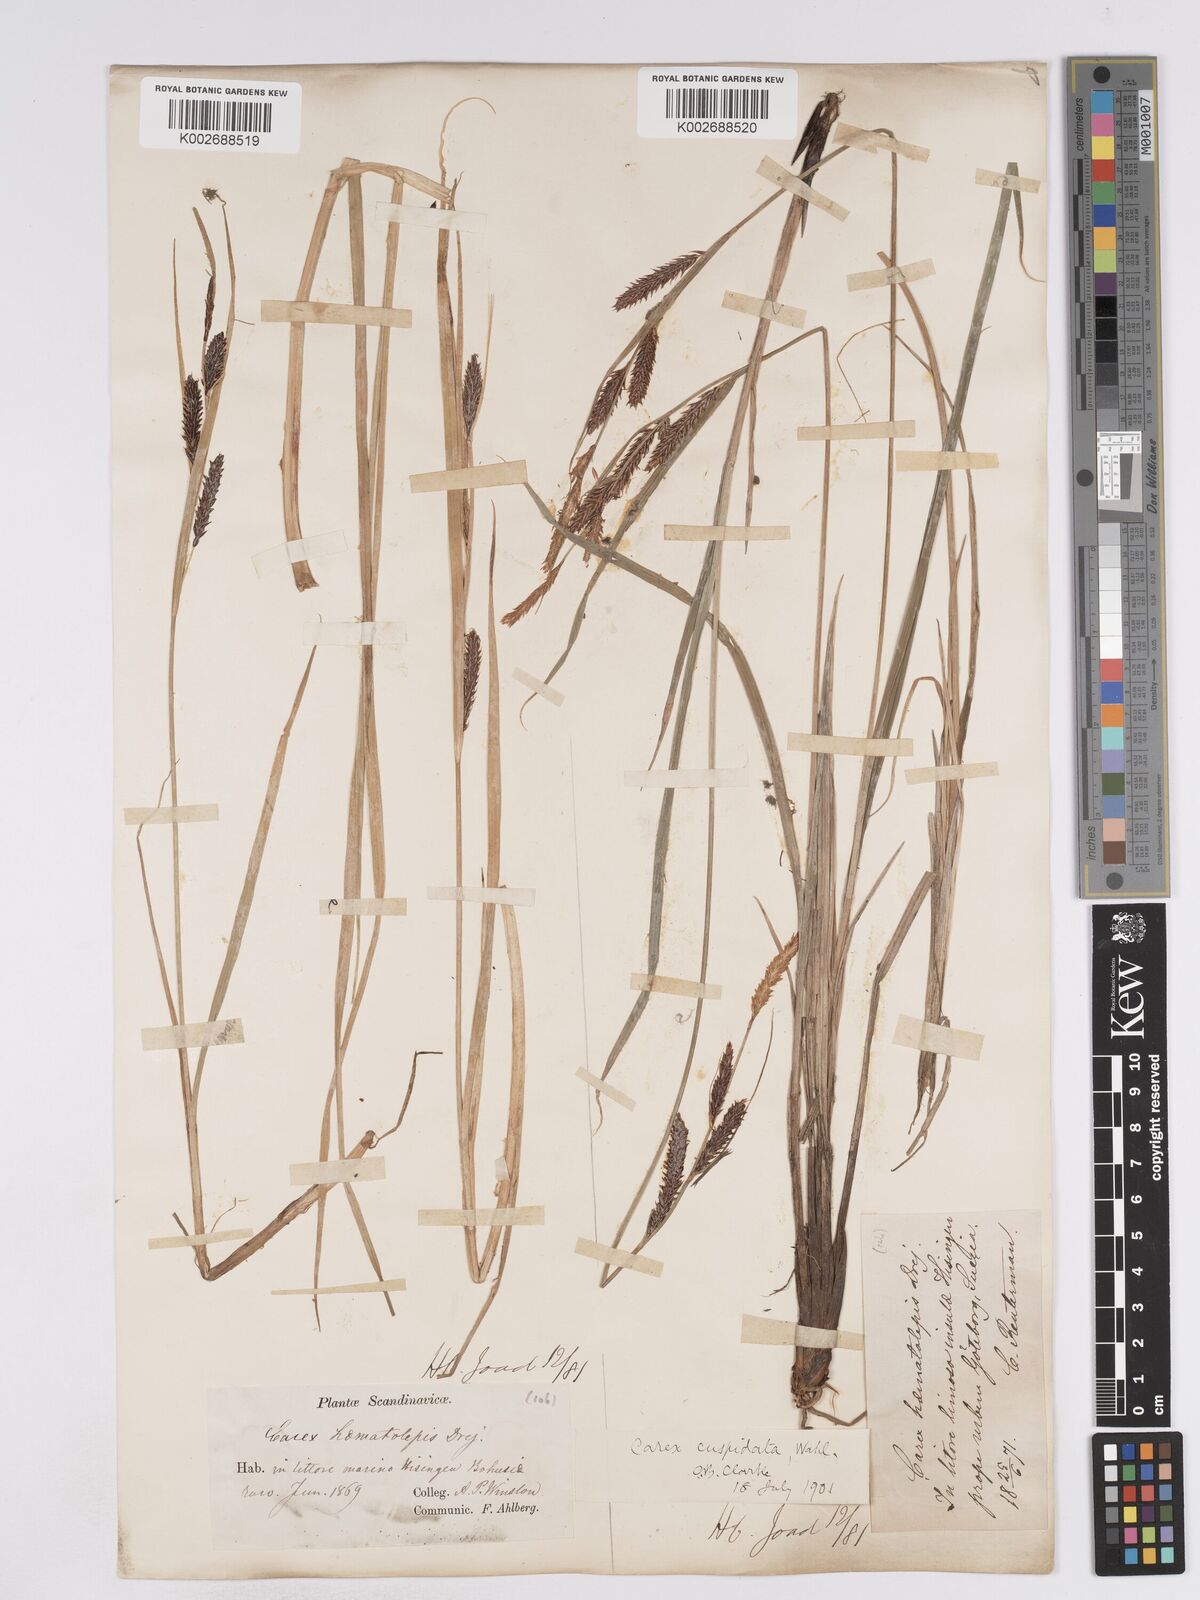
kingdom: Plantae
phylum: Tracheophyta
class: Liliopsida
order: Poales
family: Cyperaceae
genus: Carex
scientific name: Carex recta
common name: Estuarine sedge
